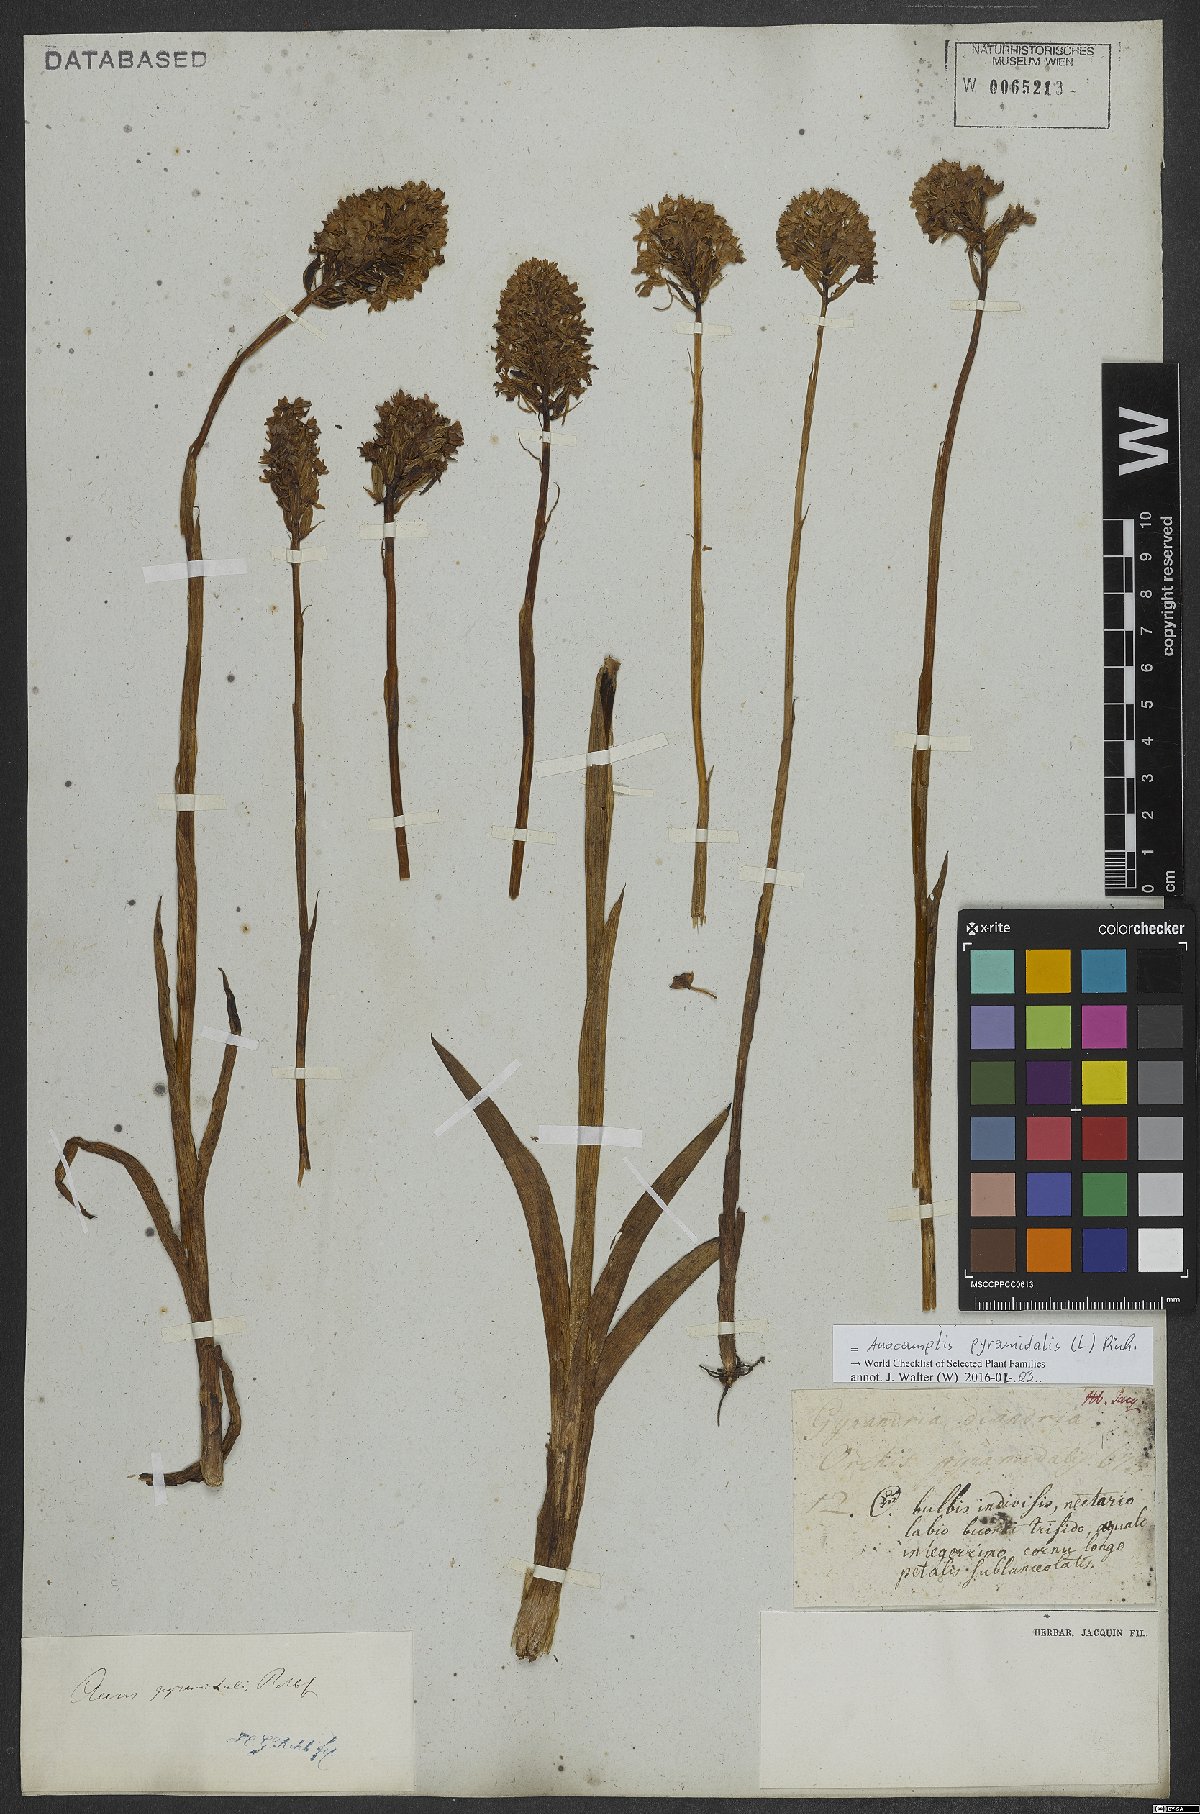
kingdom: Plantae
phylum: Tracheophyta
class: Liliopsida
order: Asparagales
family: Orchidaceae
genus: Anacamptis
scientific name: Anacamptis pyramidalis
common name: Pyramidal orchid
